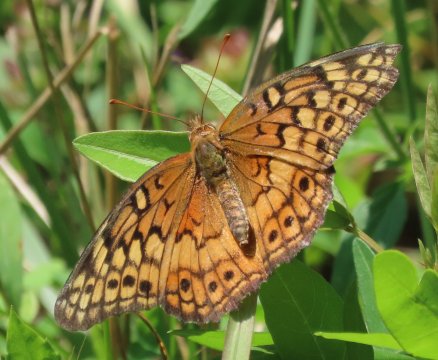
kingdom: Animalia
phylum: Arthropoda
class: Insecta
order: Lepidoptera
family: Nymphalidae
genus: Euptoieta
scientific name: Euptoieta claudia
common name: Variegated Fritillary
